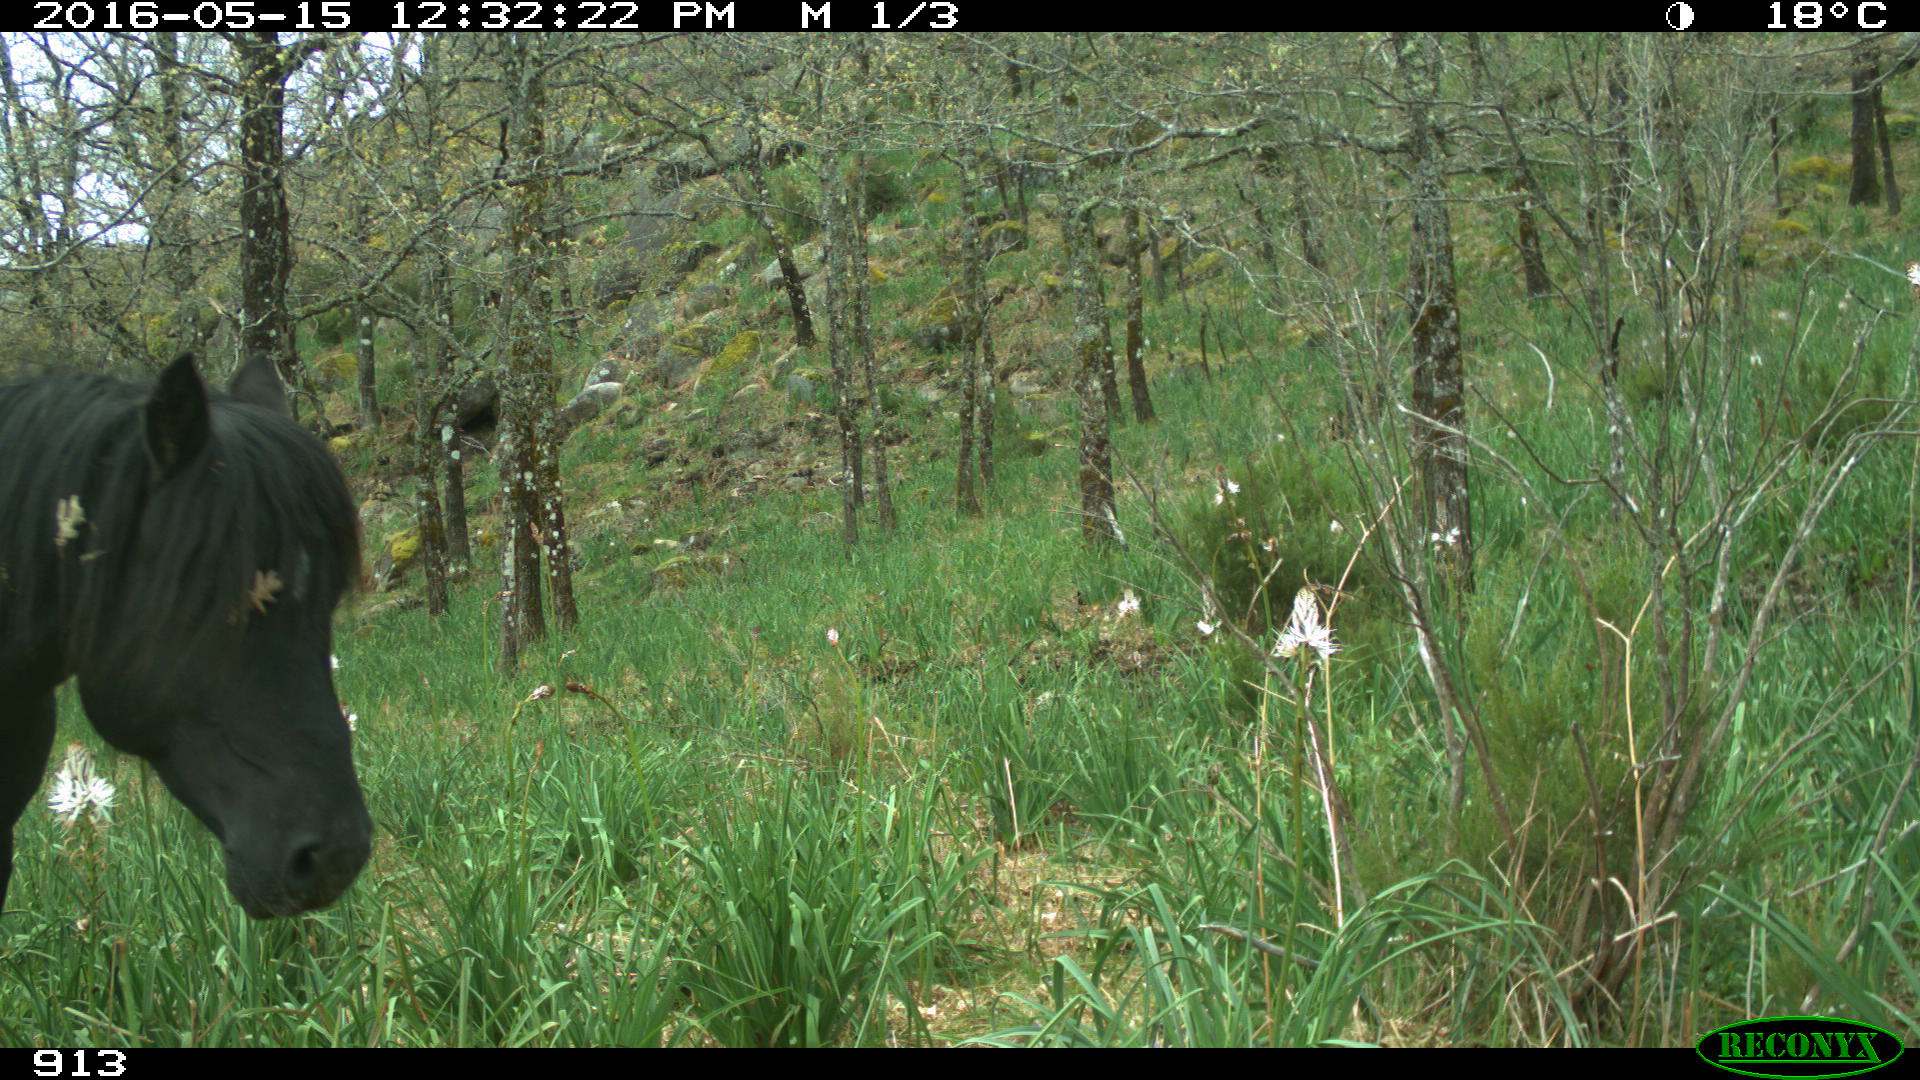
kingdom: Animalia
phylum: Chordata
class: Mammalia
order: Perissodactyla
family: Equidae
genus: Equus
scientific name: Equus caballus
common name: Horse
